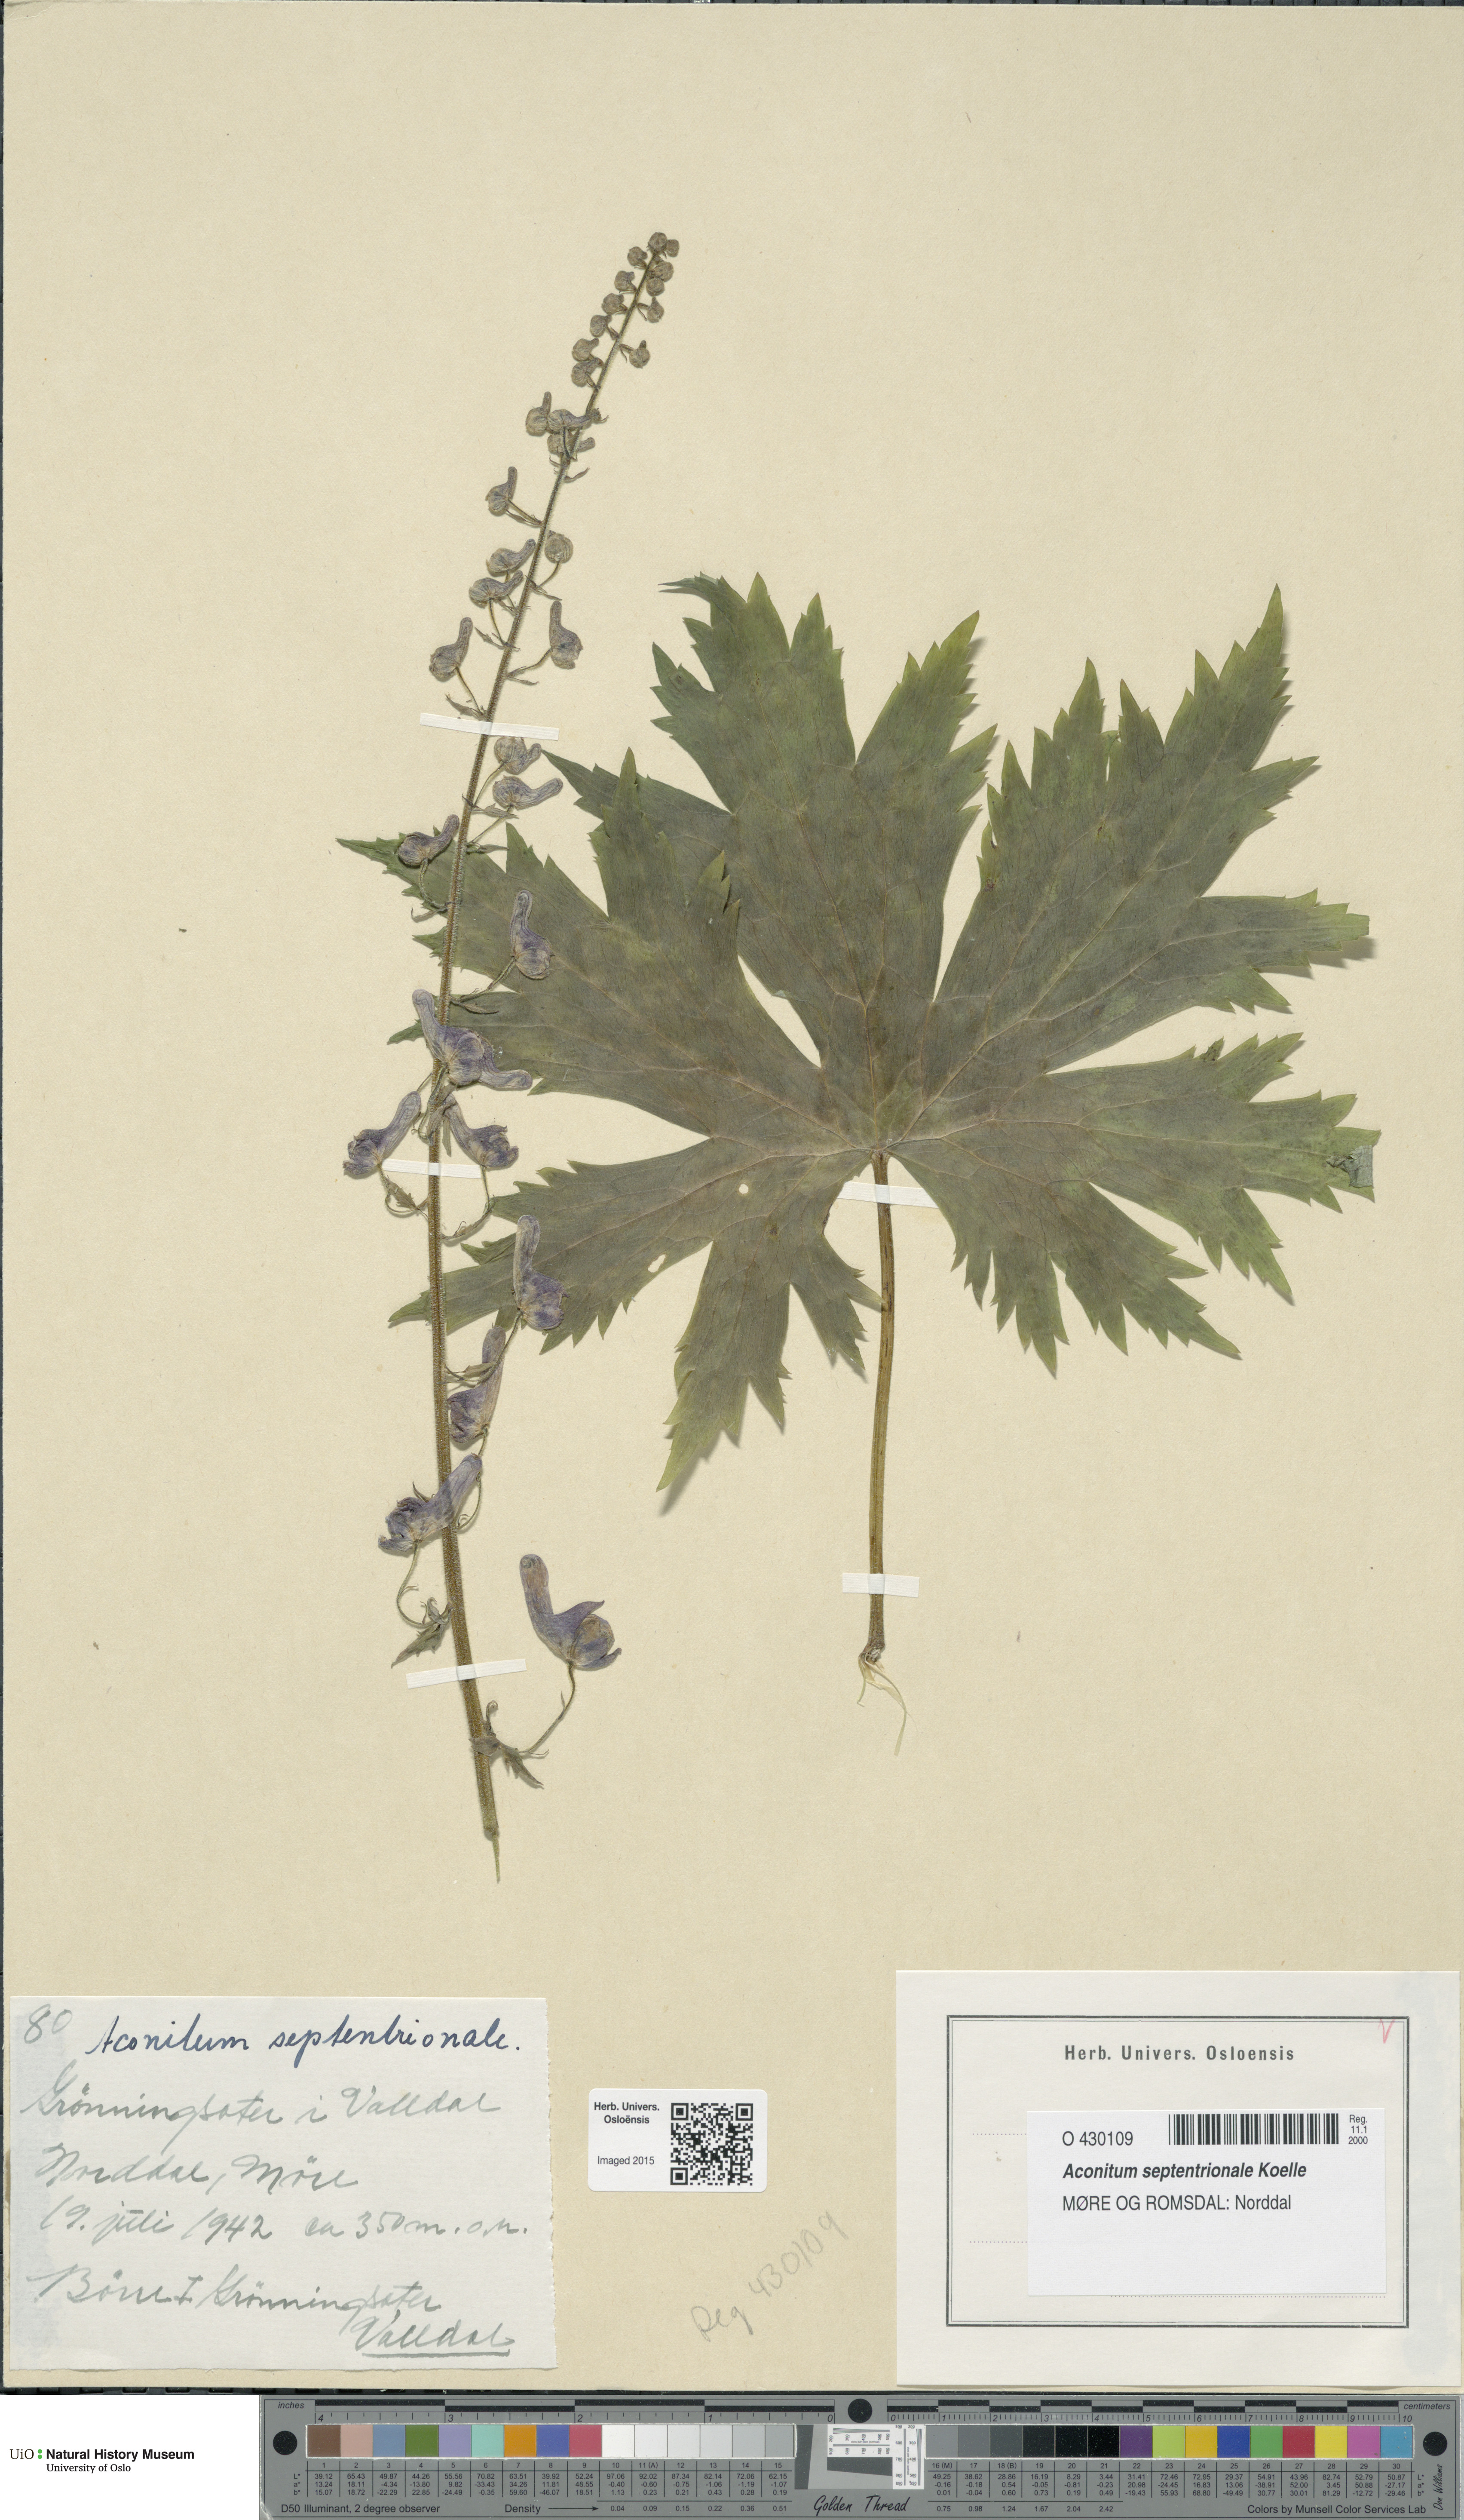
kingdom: Plantae
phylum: Tracheophyta
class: Magnoliopsida
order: Ranunculales
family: Ranunculaceae
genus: Aconitum
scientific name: Aconitum septentrionale
